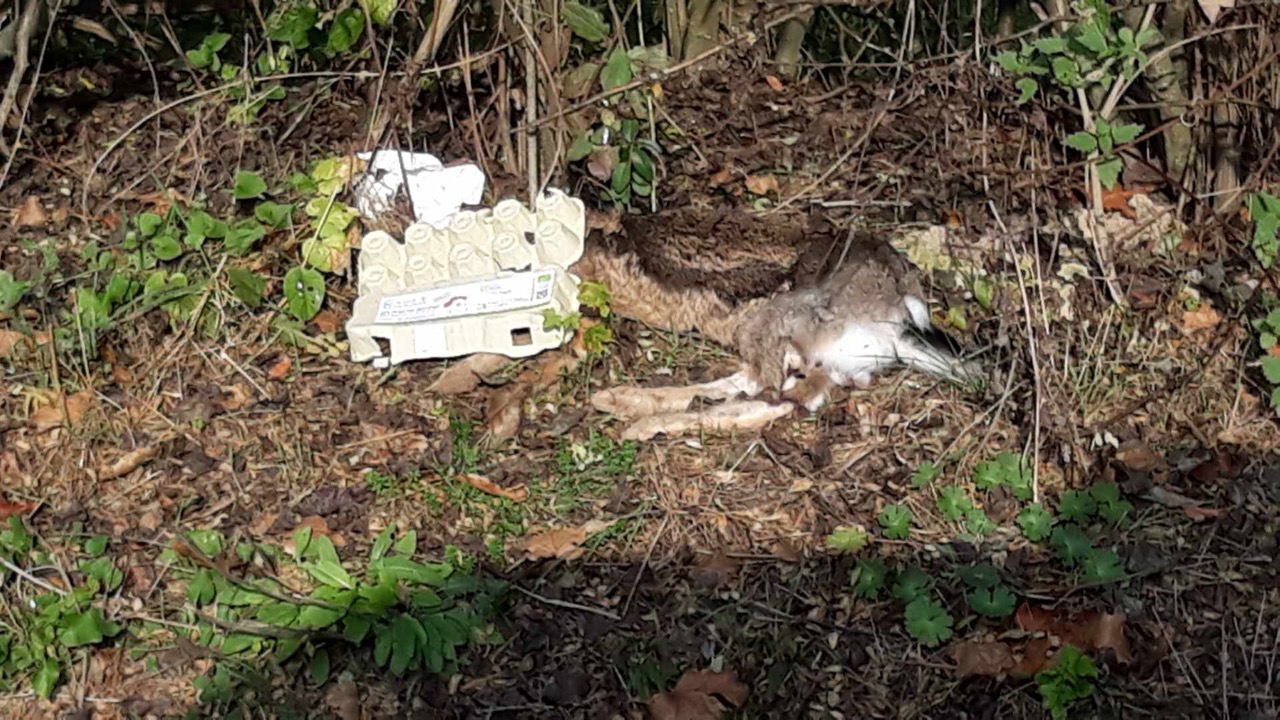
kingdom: Animalia
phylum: Chordata
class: Mammalia
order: Lagomorpha
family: Leporidae
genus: Lepus
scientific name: Lepus europaeus
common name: European hare
